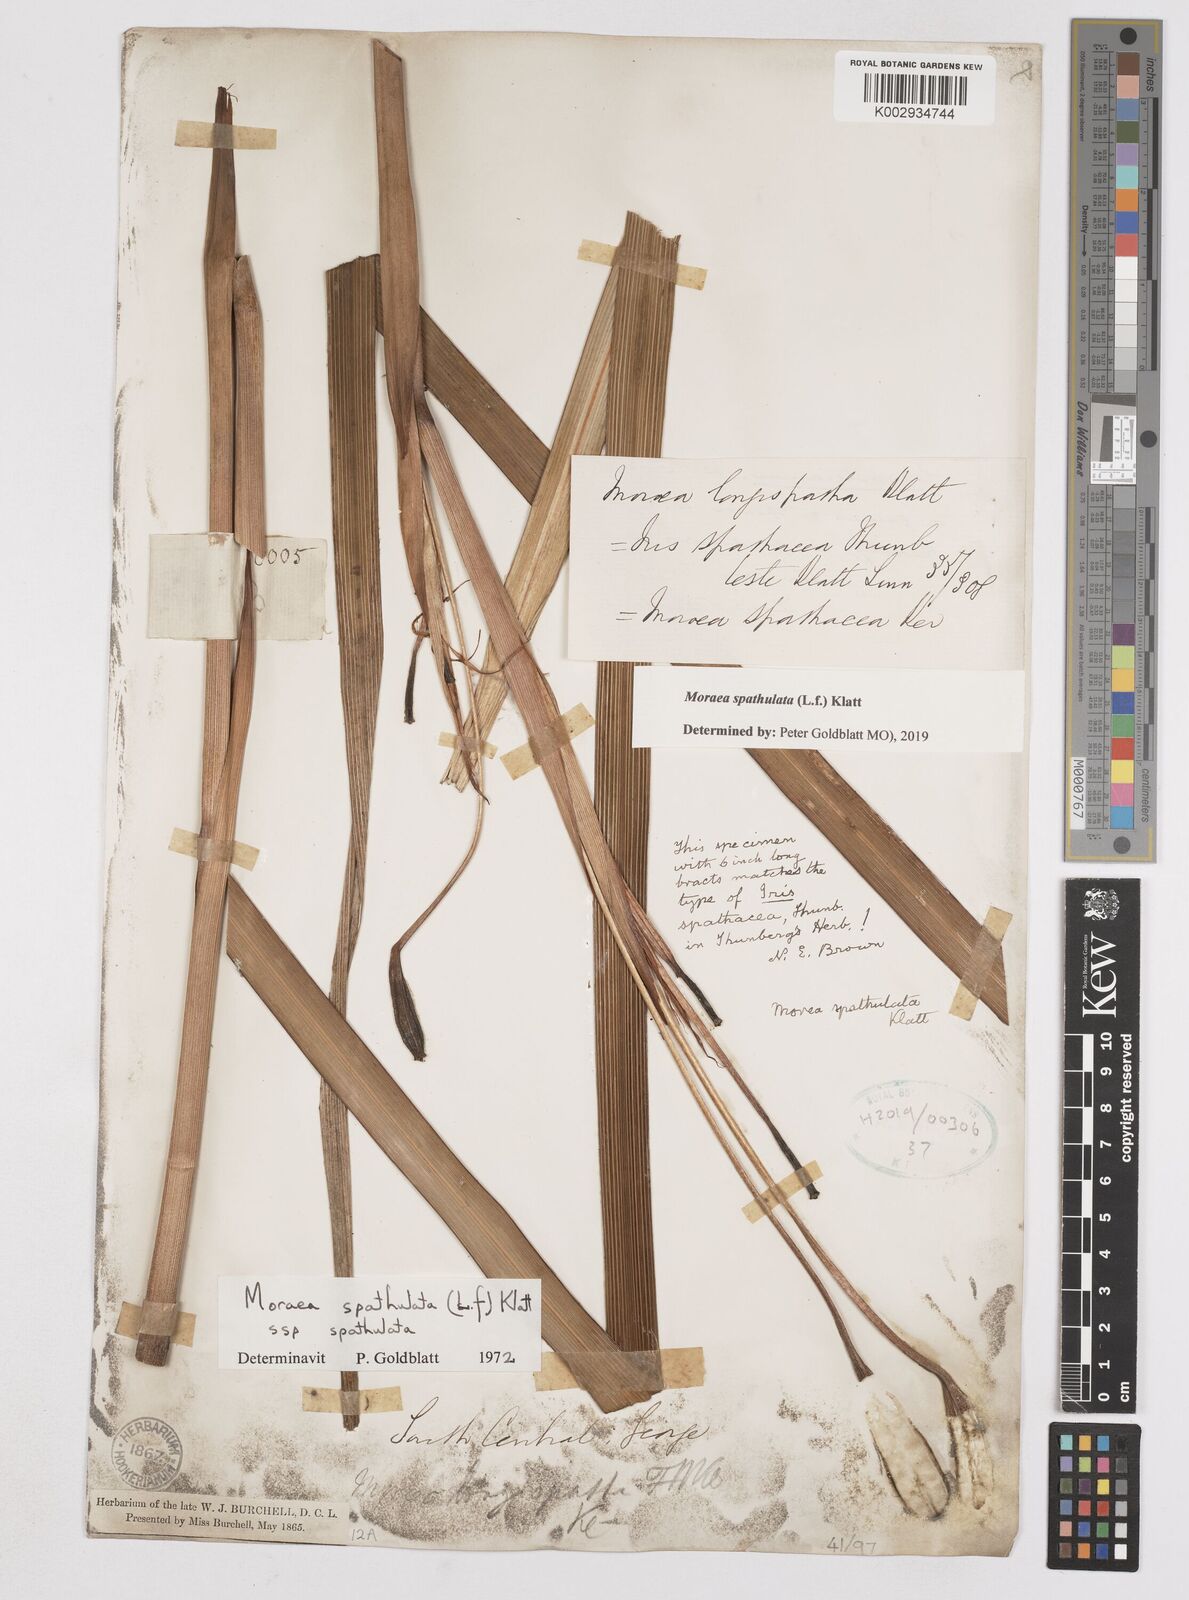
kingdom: Plantae
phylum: Tracheophyta
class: Liliopsida
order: Asparagales
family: Iridaceae
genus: Moraea
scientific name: Moraea spathulata
